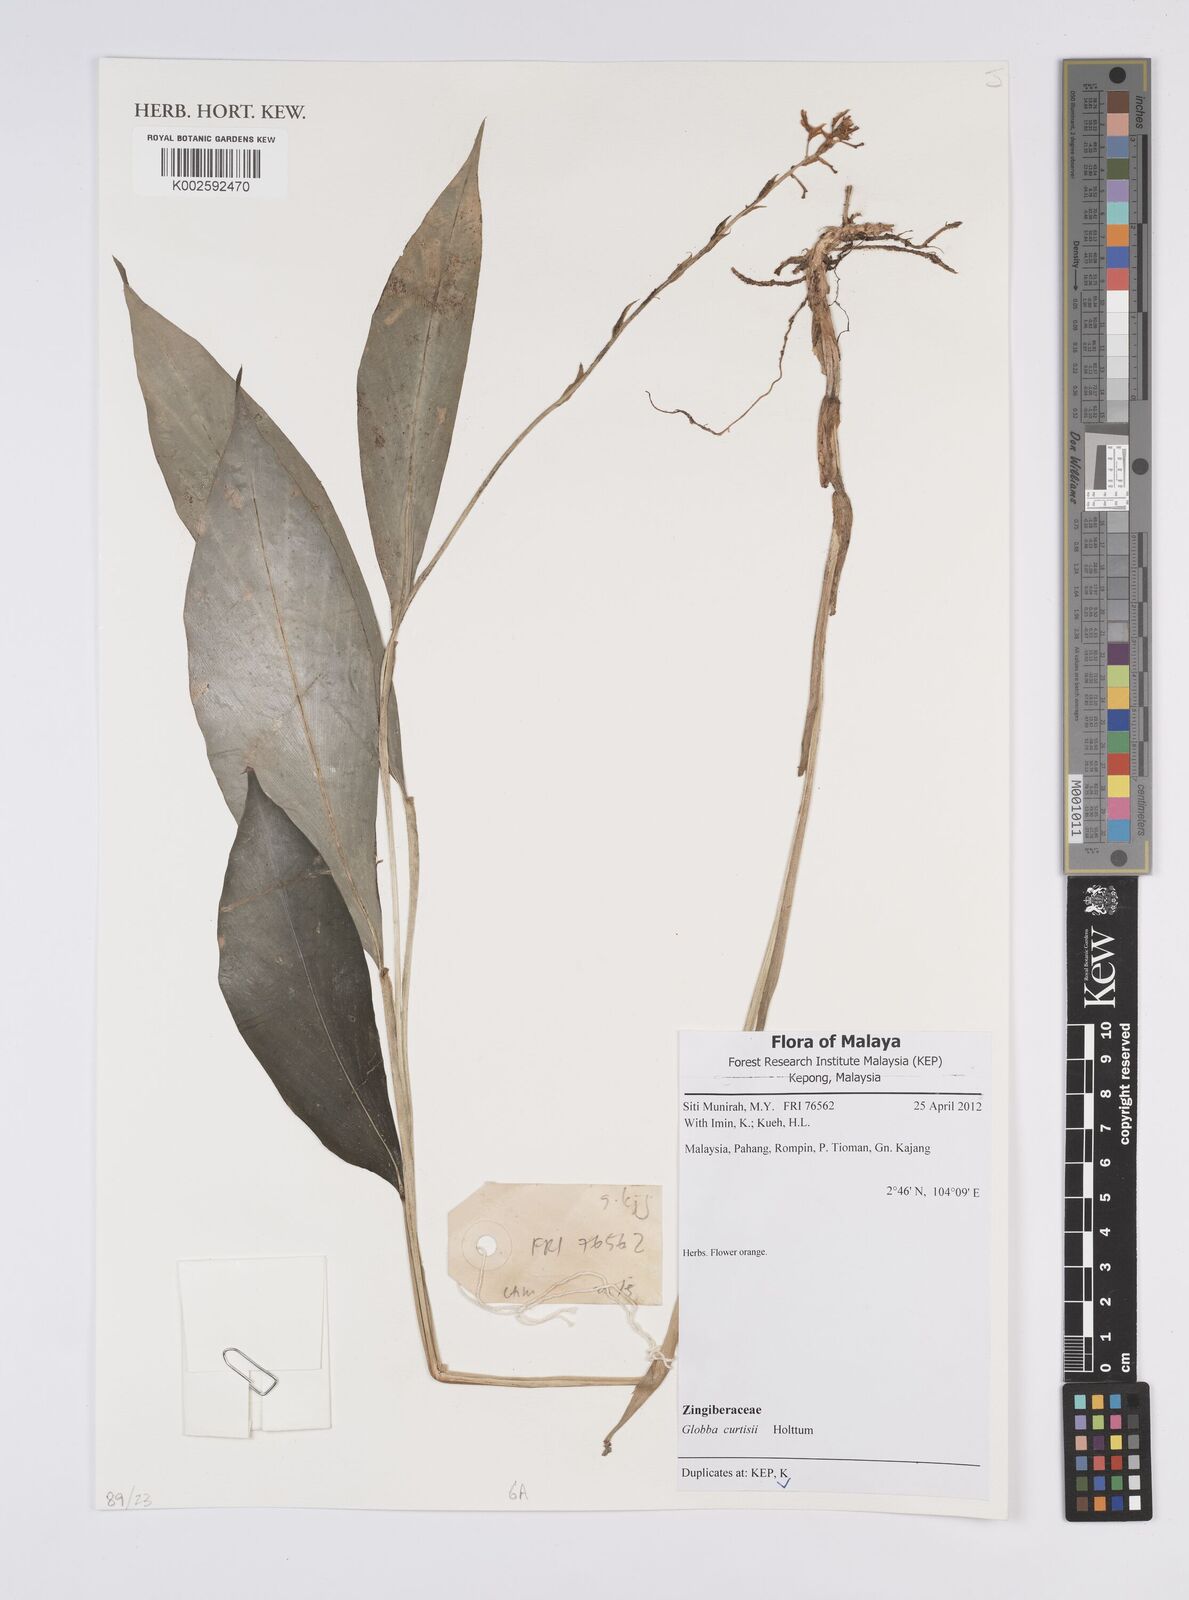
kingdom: Plantae
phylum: Tracheophyta
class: Liliopsida
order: Zingiberales
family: Zingiberaceae
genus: Globba
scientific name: Globba curtisii
